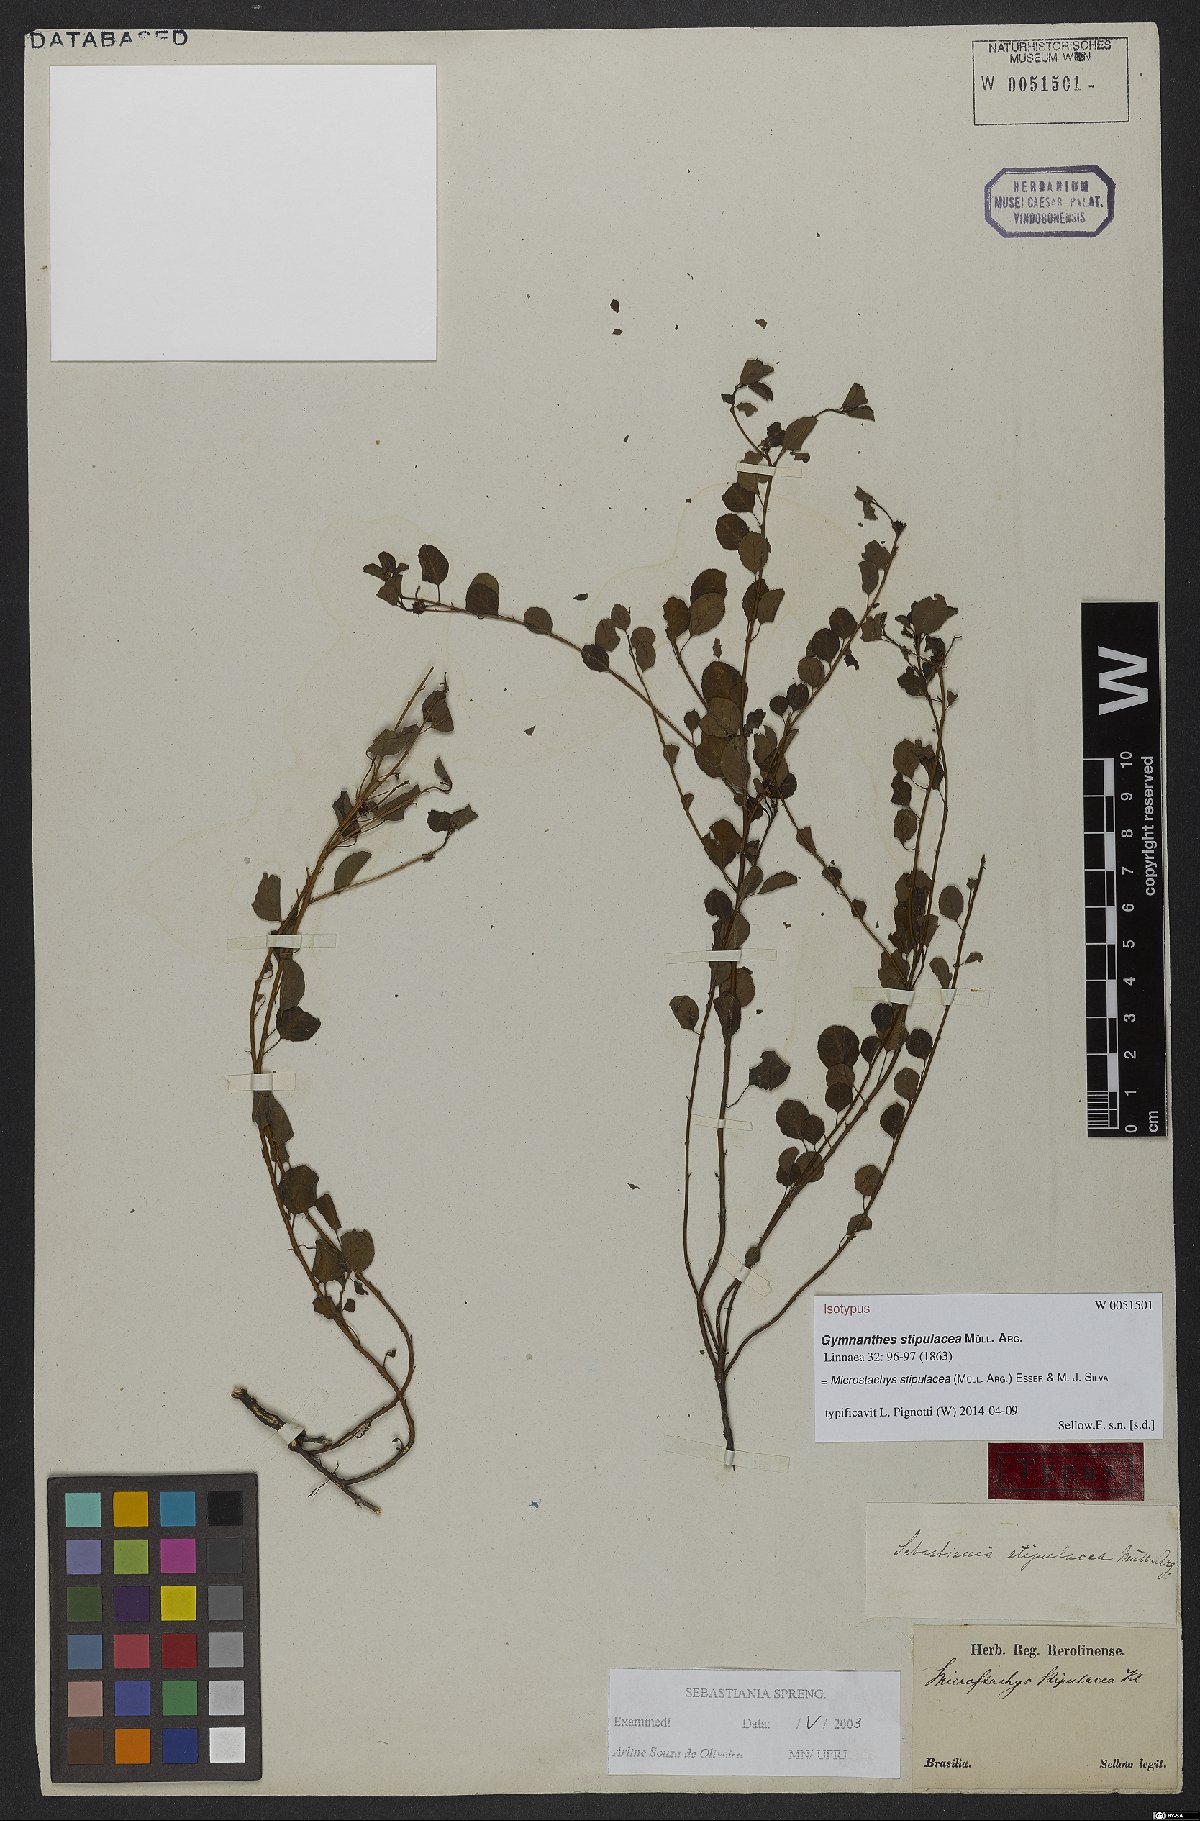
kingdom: Plantae
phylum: Tracheophyta
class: Magnoliopsida
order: Malpighiales
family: Euphorbiaceae
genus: Microstachys
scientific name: Microstachys stipulacea
